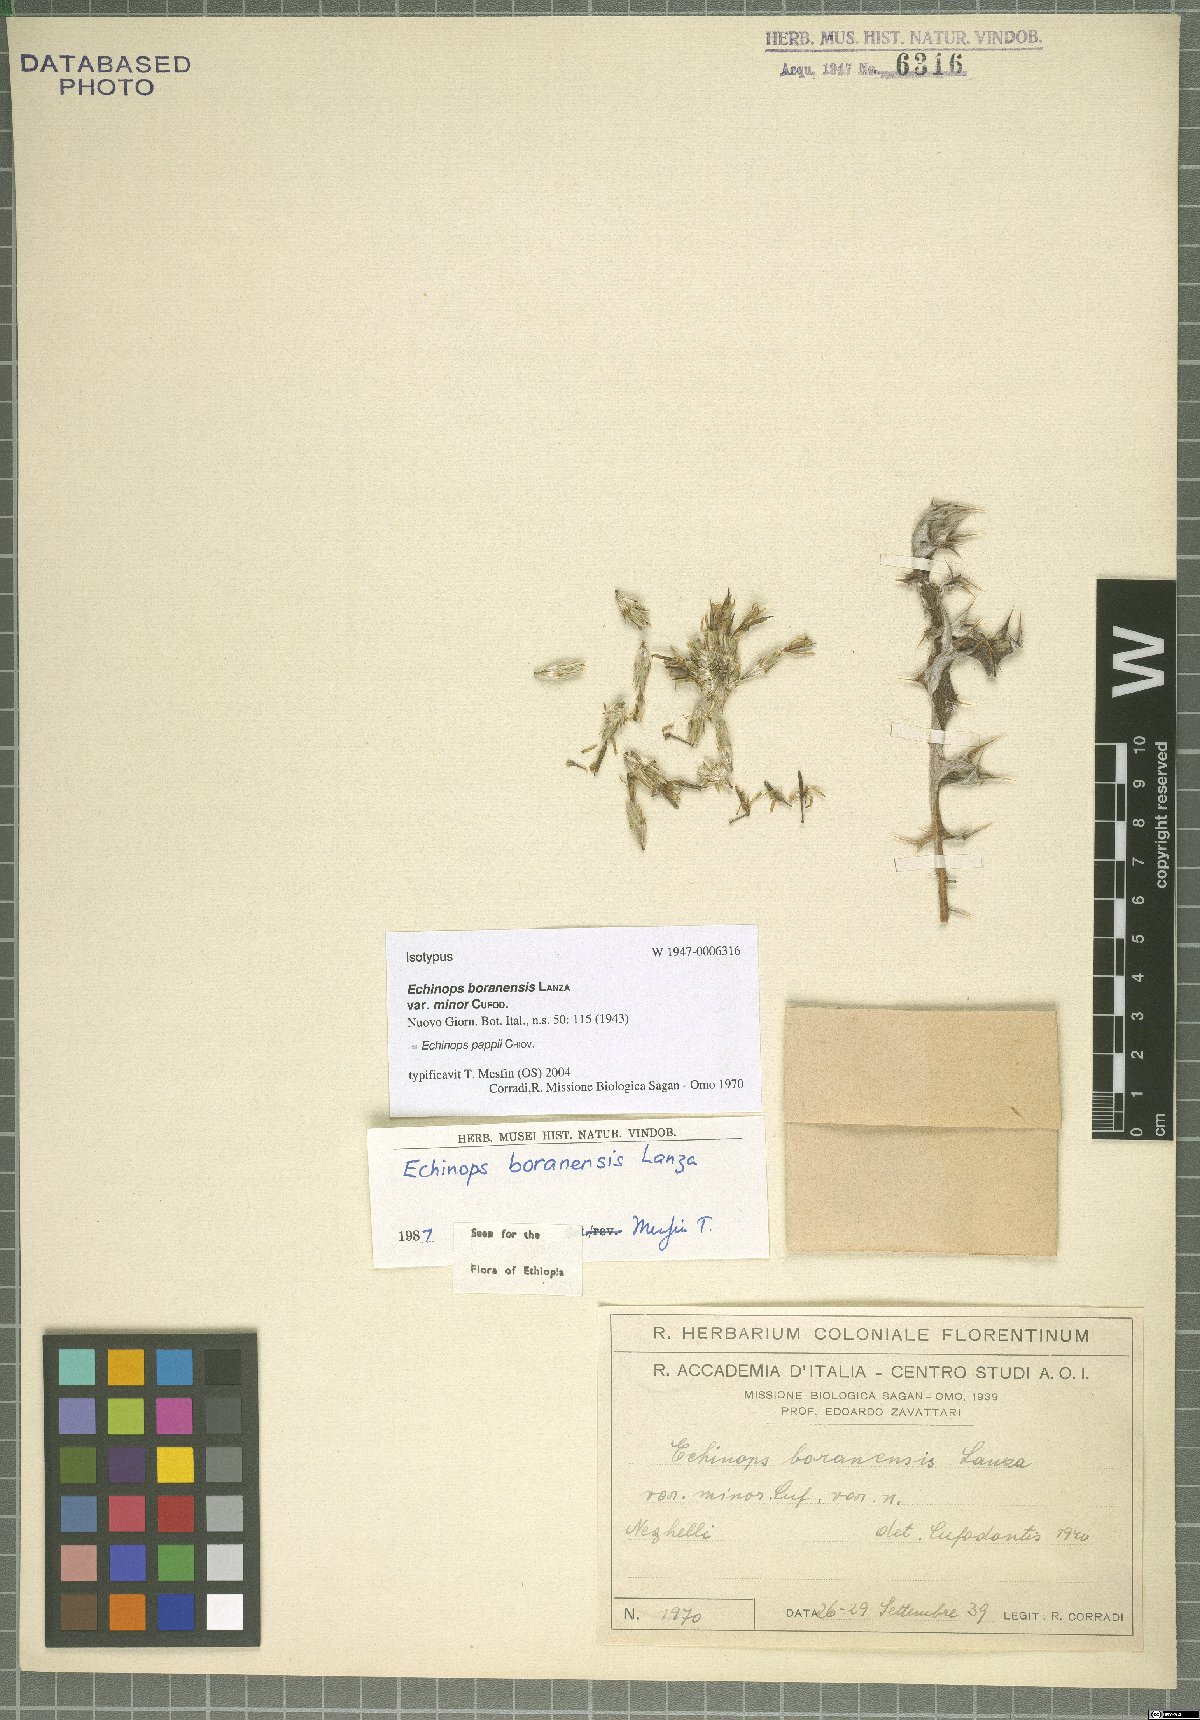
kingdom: Plantae
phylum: Tracheophyta
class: Magnoliopsida
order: Asterales
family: Asteraceae
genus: Echinops
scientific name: Echinops pappii
